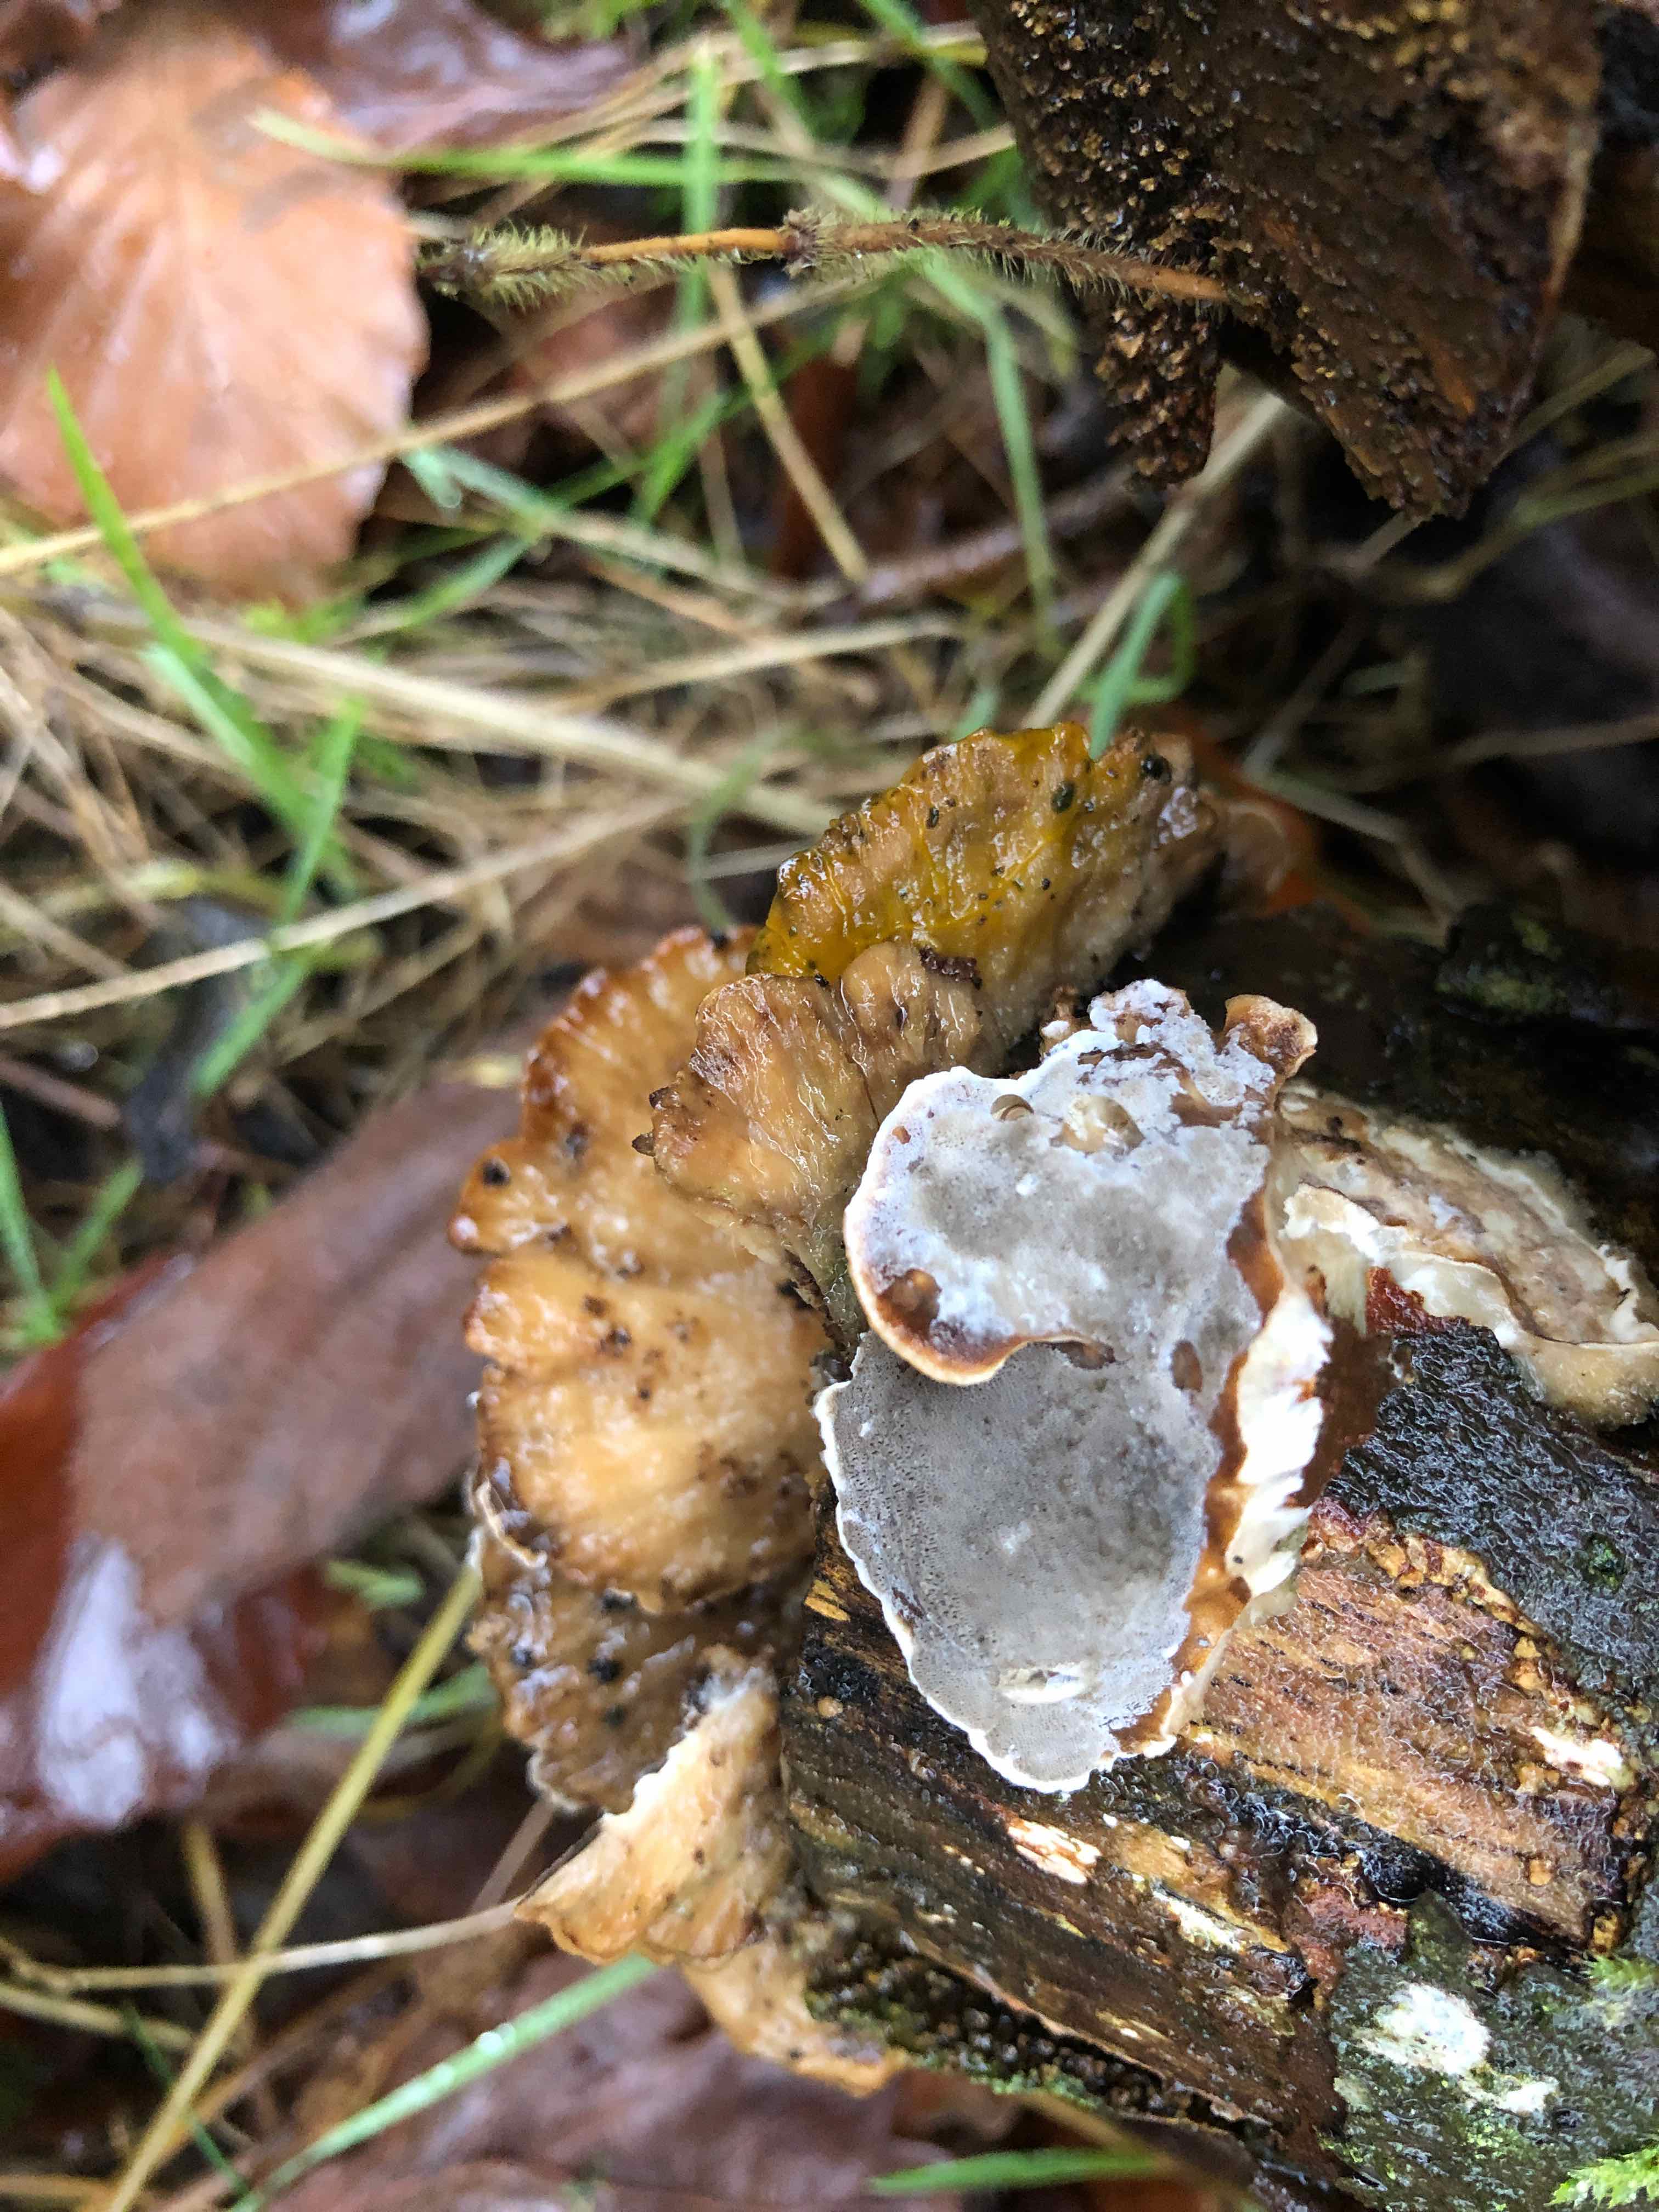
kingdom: Fungi
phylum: Basidiomycota
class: Agaricomycetes
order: Polyporales
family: Phanerochaetaceae
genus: Bjerkandera
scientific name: Bjerkandera adusta
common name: sveden sodporesvamp
